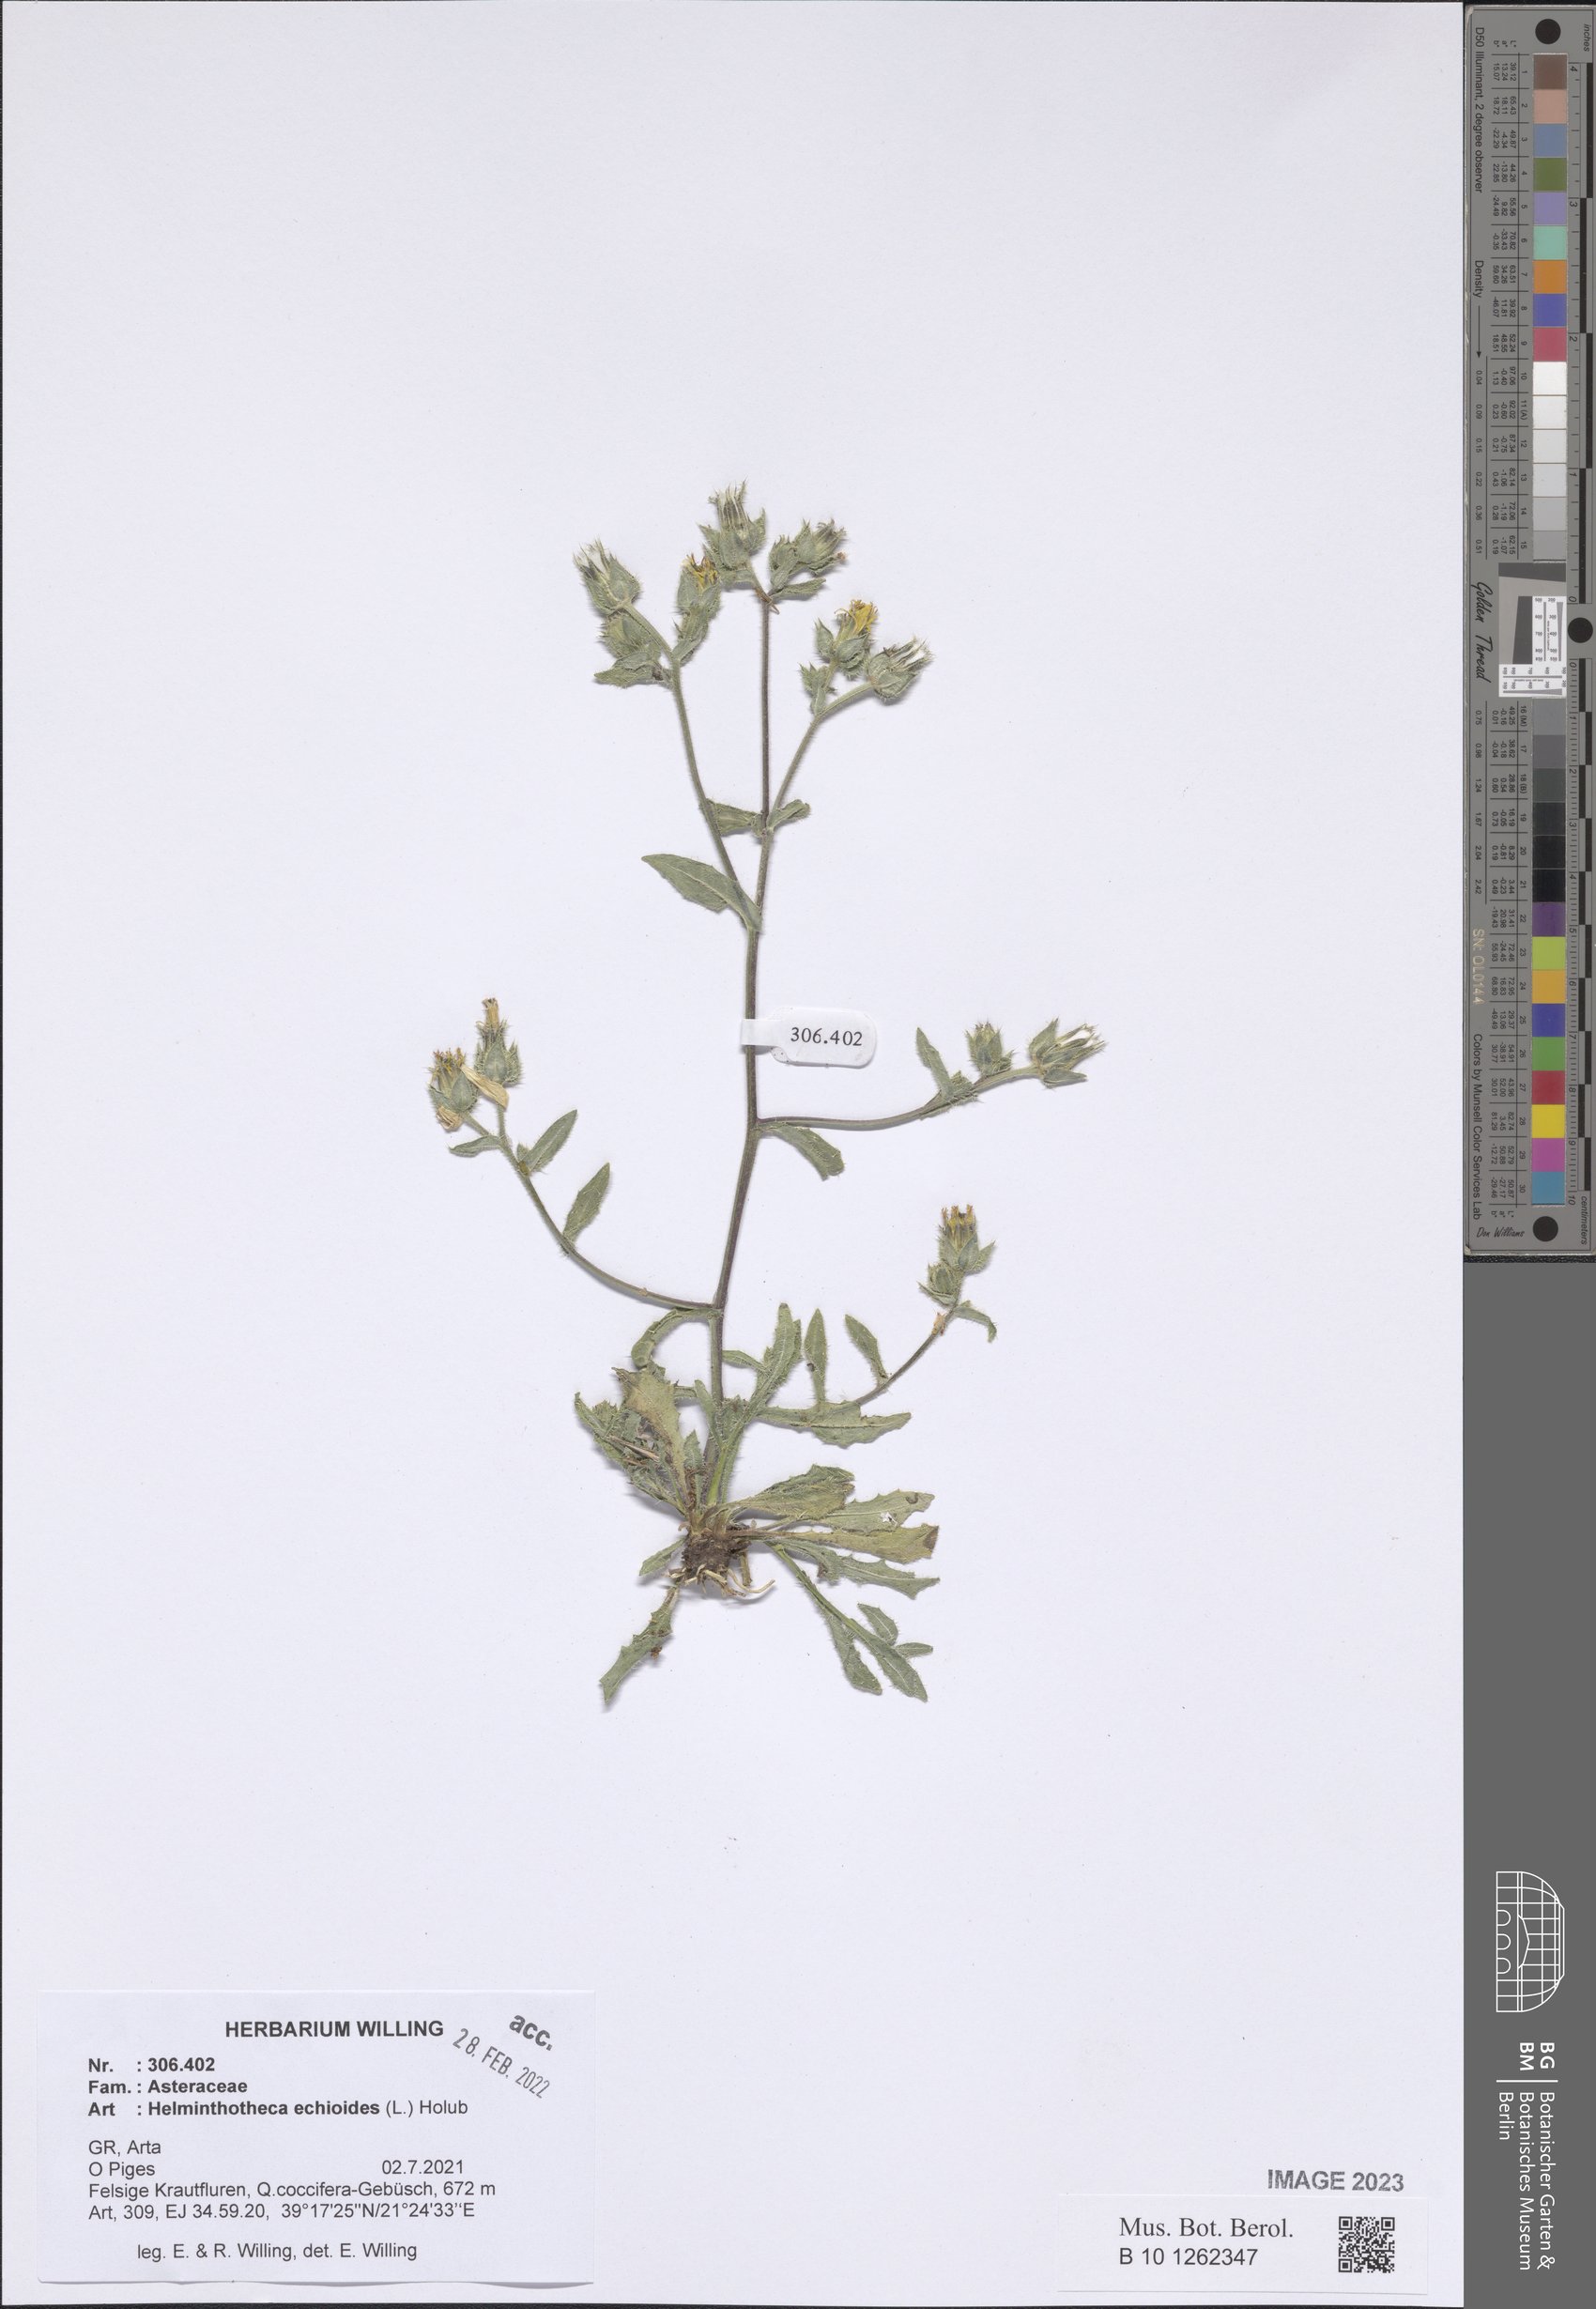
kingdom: Plantae
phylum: Tracheophyta
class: Magnoliopsida
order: Asterales
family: Asteraceae
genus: Helminthotheca
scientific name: Helminthotheca echioides
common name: Ox-tongue
